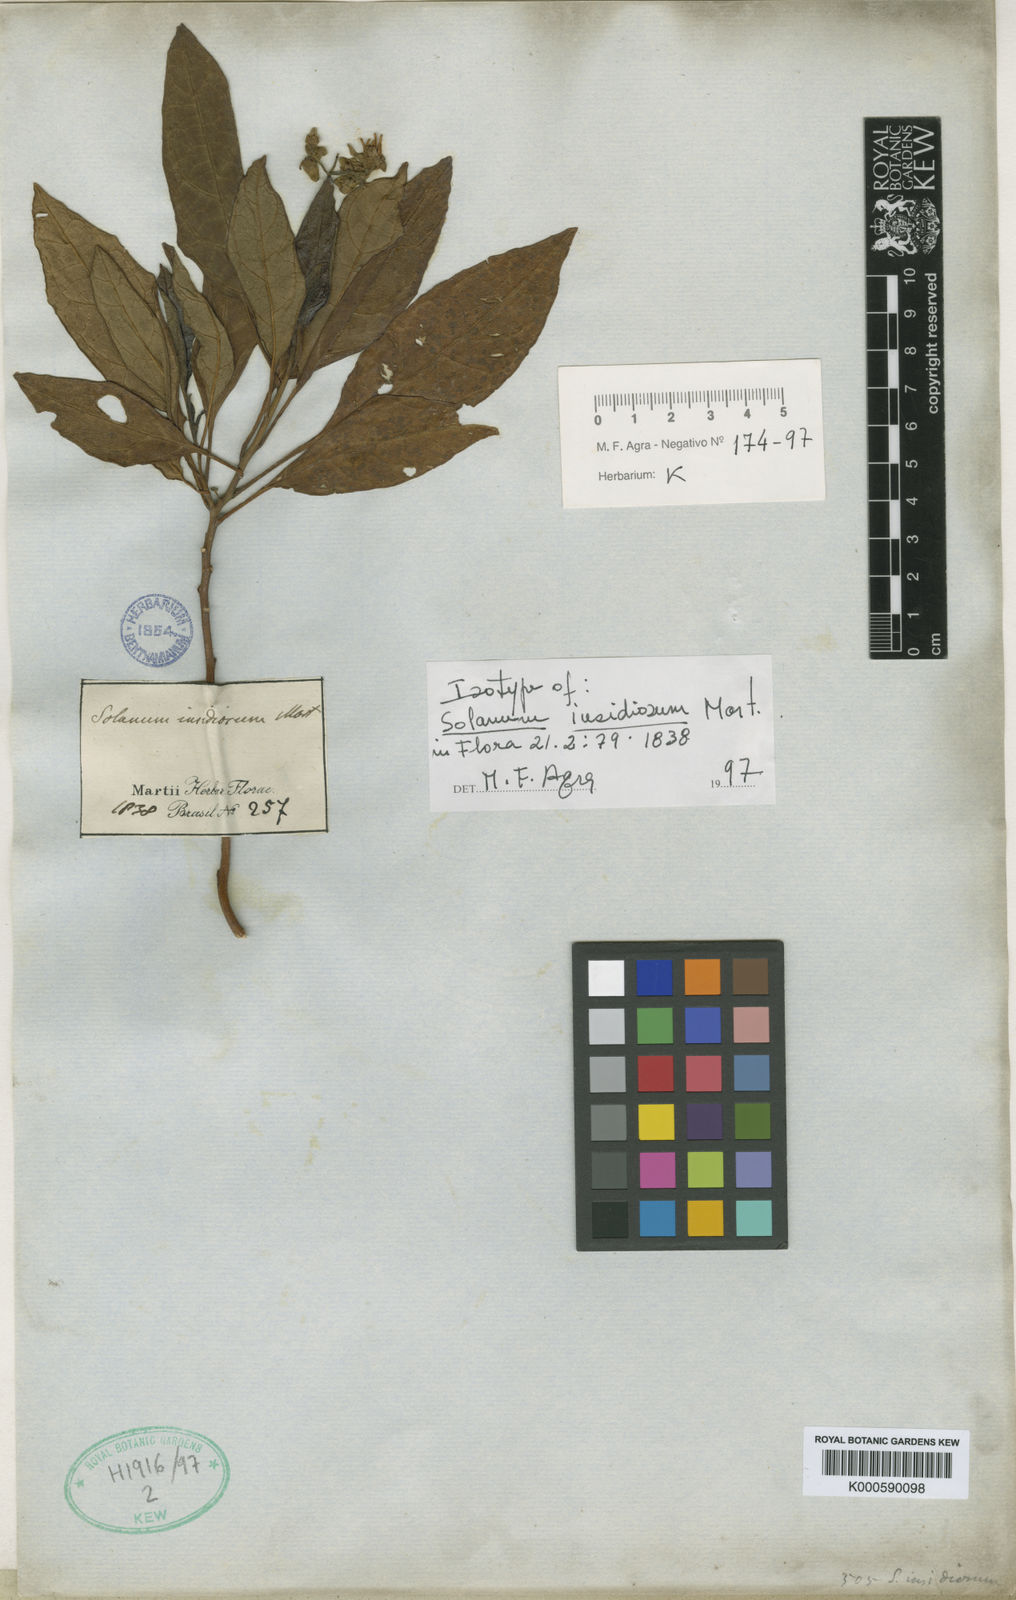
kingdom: Plantae
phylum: Tracheophyta
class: Magnoliopsida
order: Solanales
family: Solanaceae
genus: Solanum
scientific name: Solanum insidiosum
